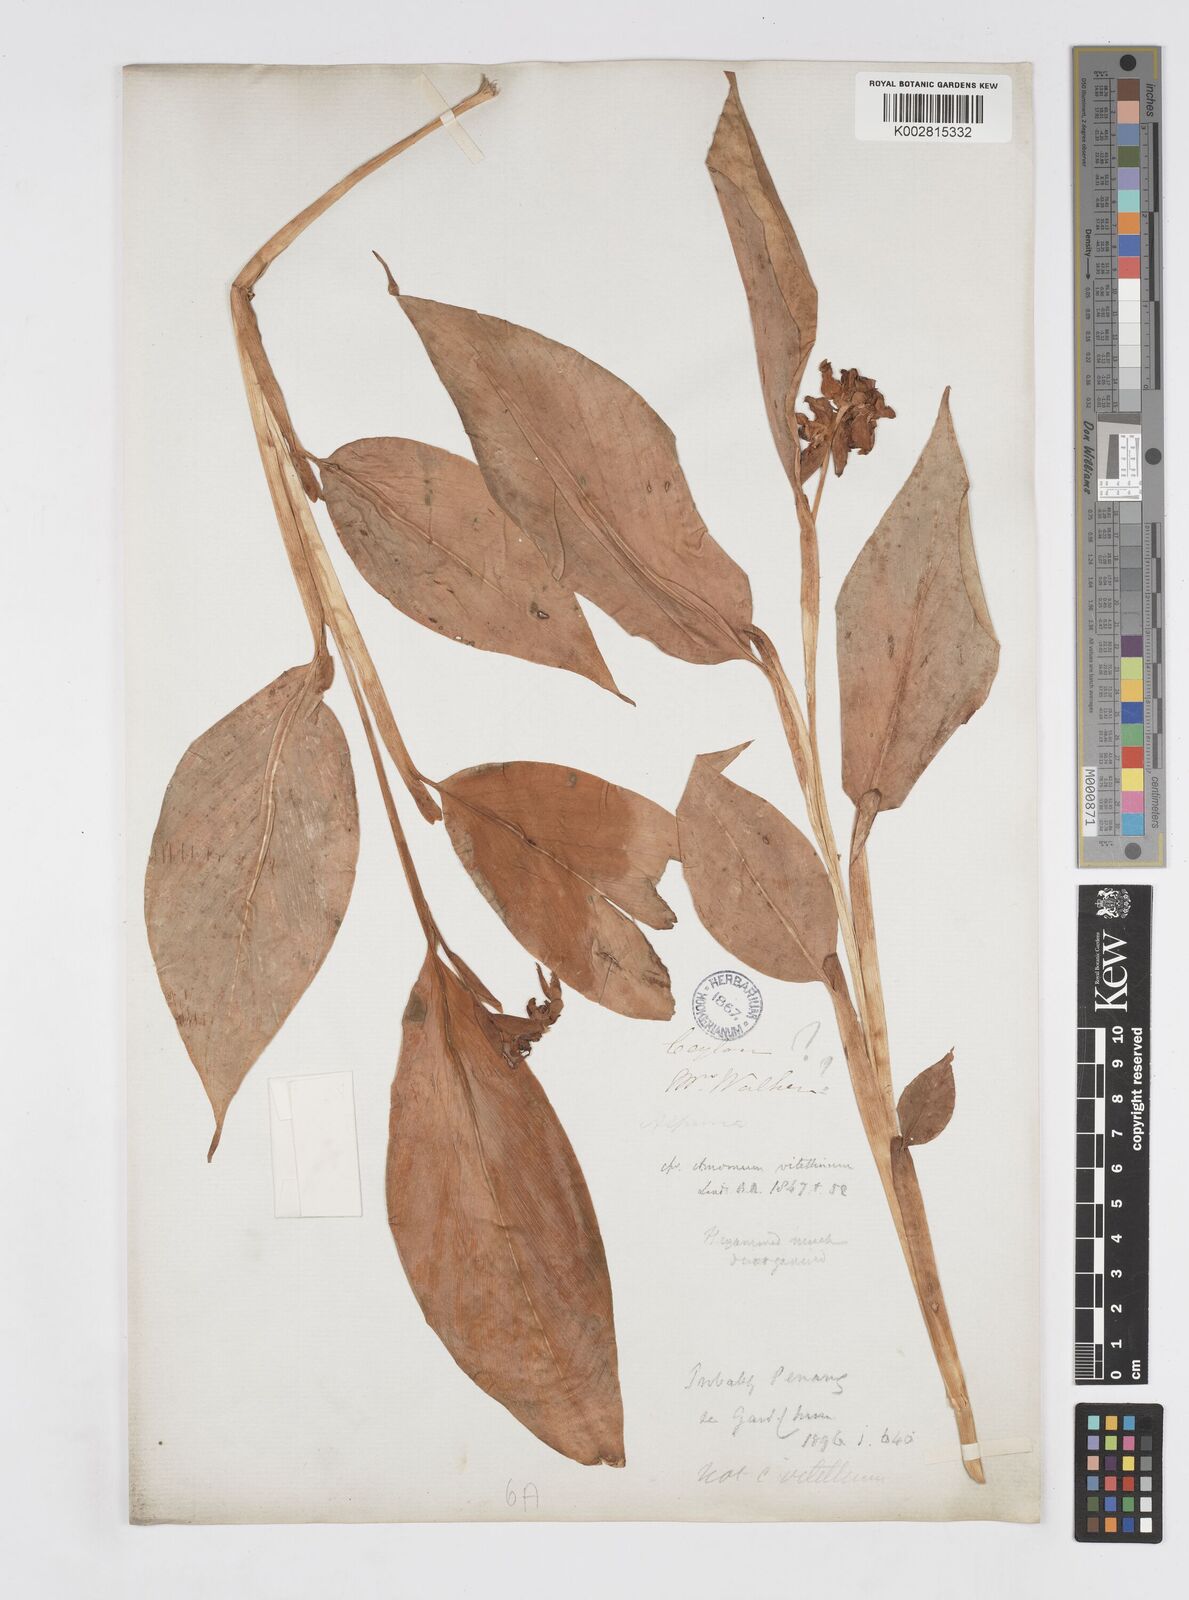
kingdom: Plantae
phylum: Tracheophyta
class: Liliopsida
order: Zingiberales
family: Zingiberaceae
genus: Alpinia
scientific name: Alpinia
